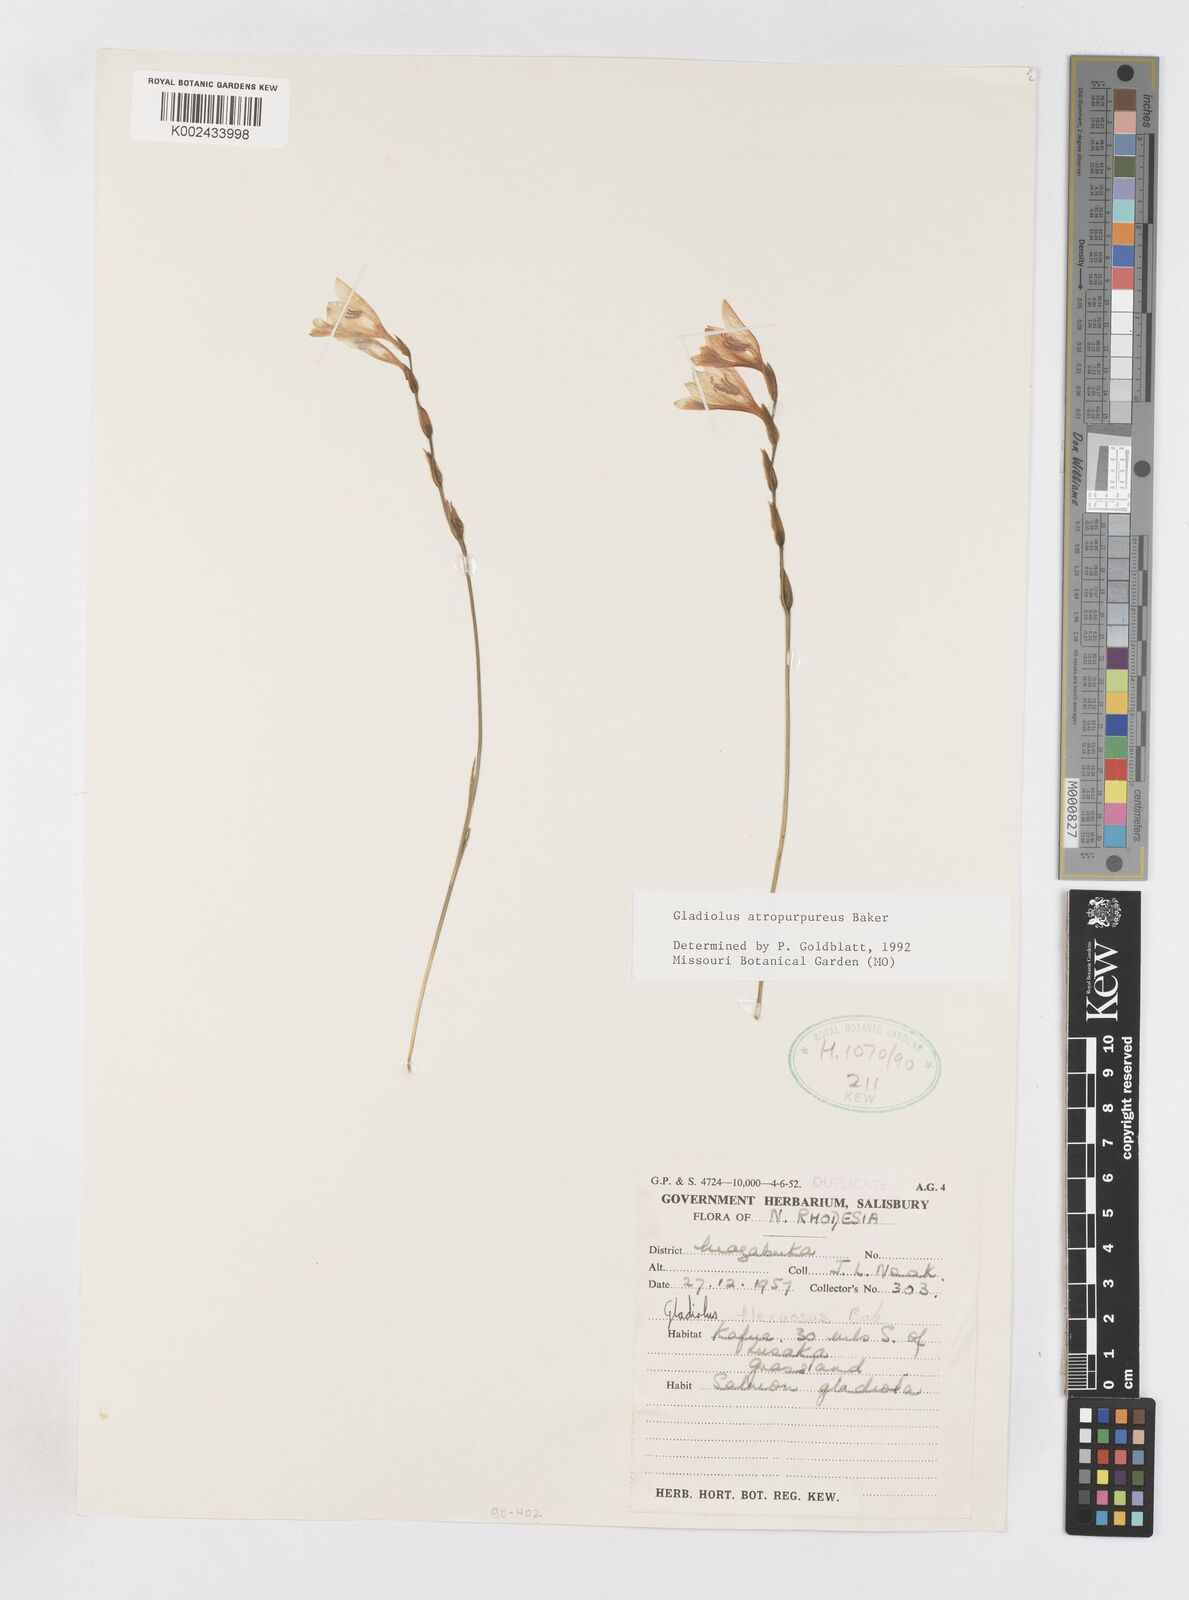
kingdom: Plantae
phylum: Tracheophyta
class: Liliopsida
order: Asparagales
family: Iridaceae
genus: Gladiolus
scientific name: Gladiolus atropurpureus
